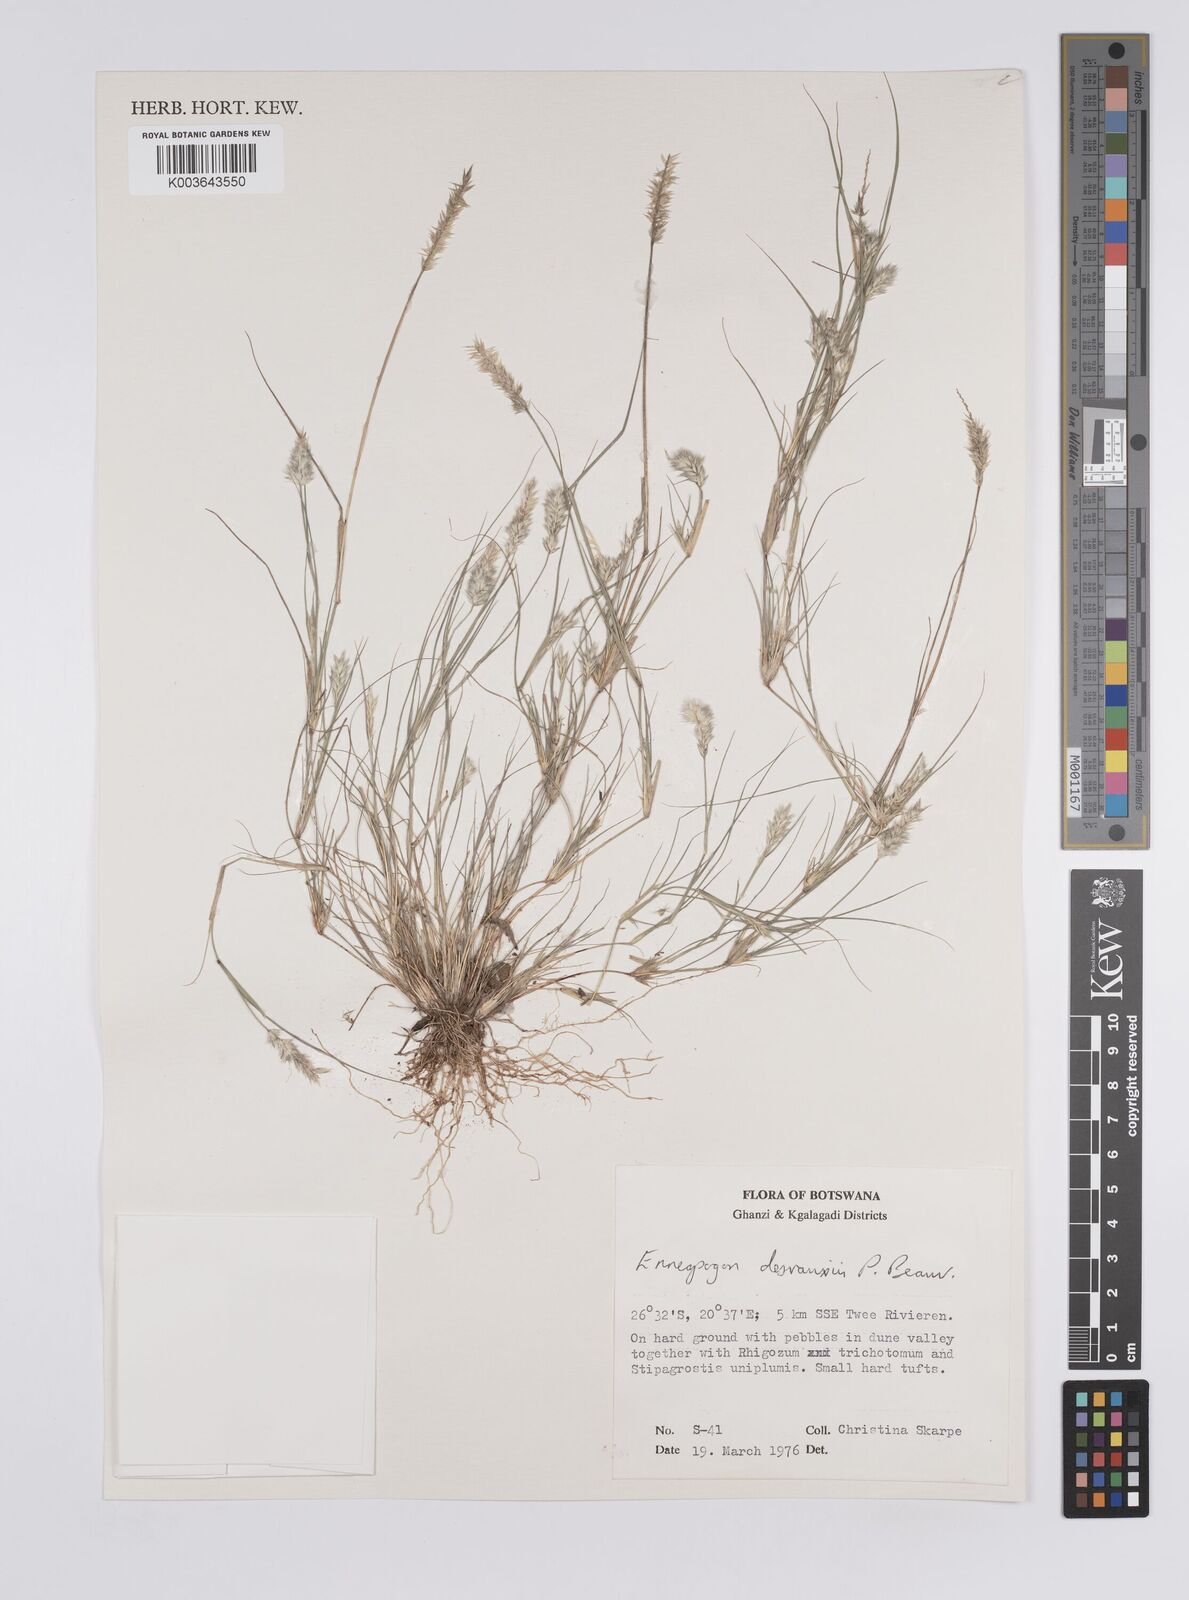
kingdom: Plantae
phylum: Tracheophyta
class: Liliopsida
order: Poales
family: Poaceae
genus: Enneapogon
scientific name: Enneapogon desvauxii
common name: Feather pappus grass
